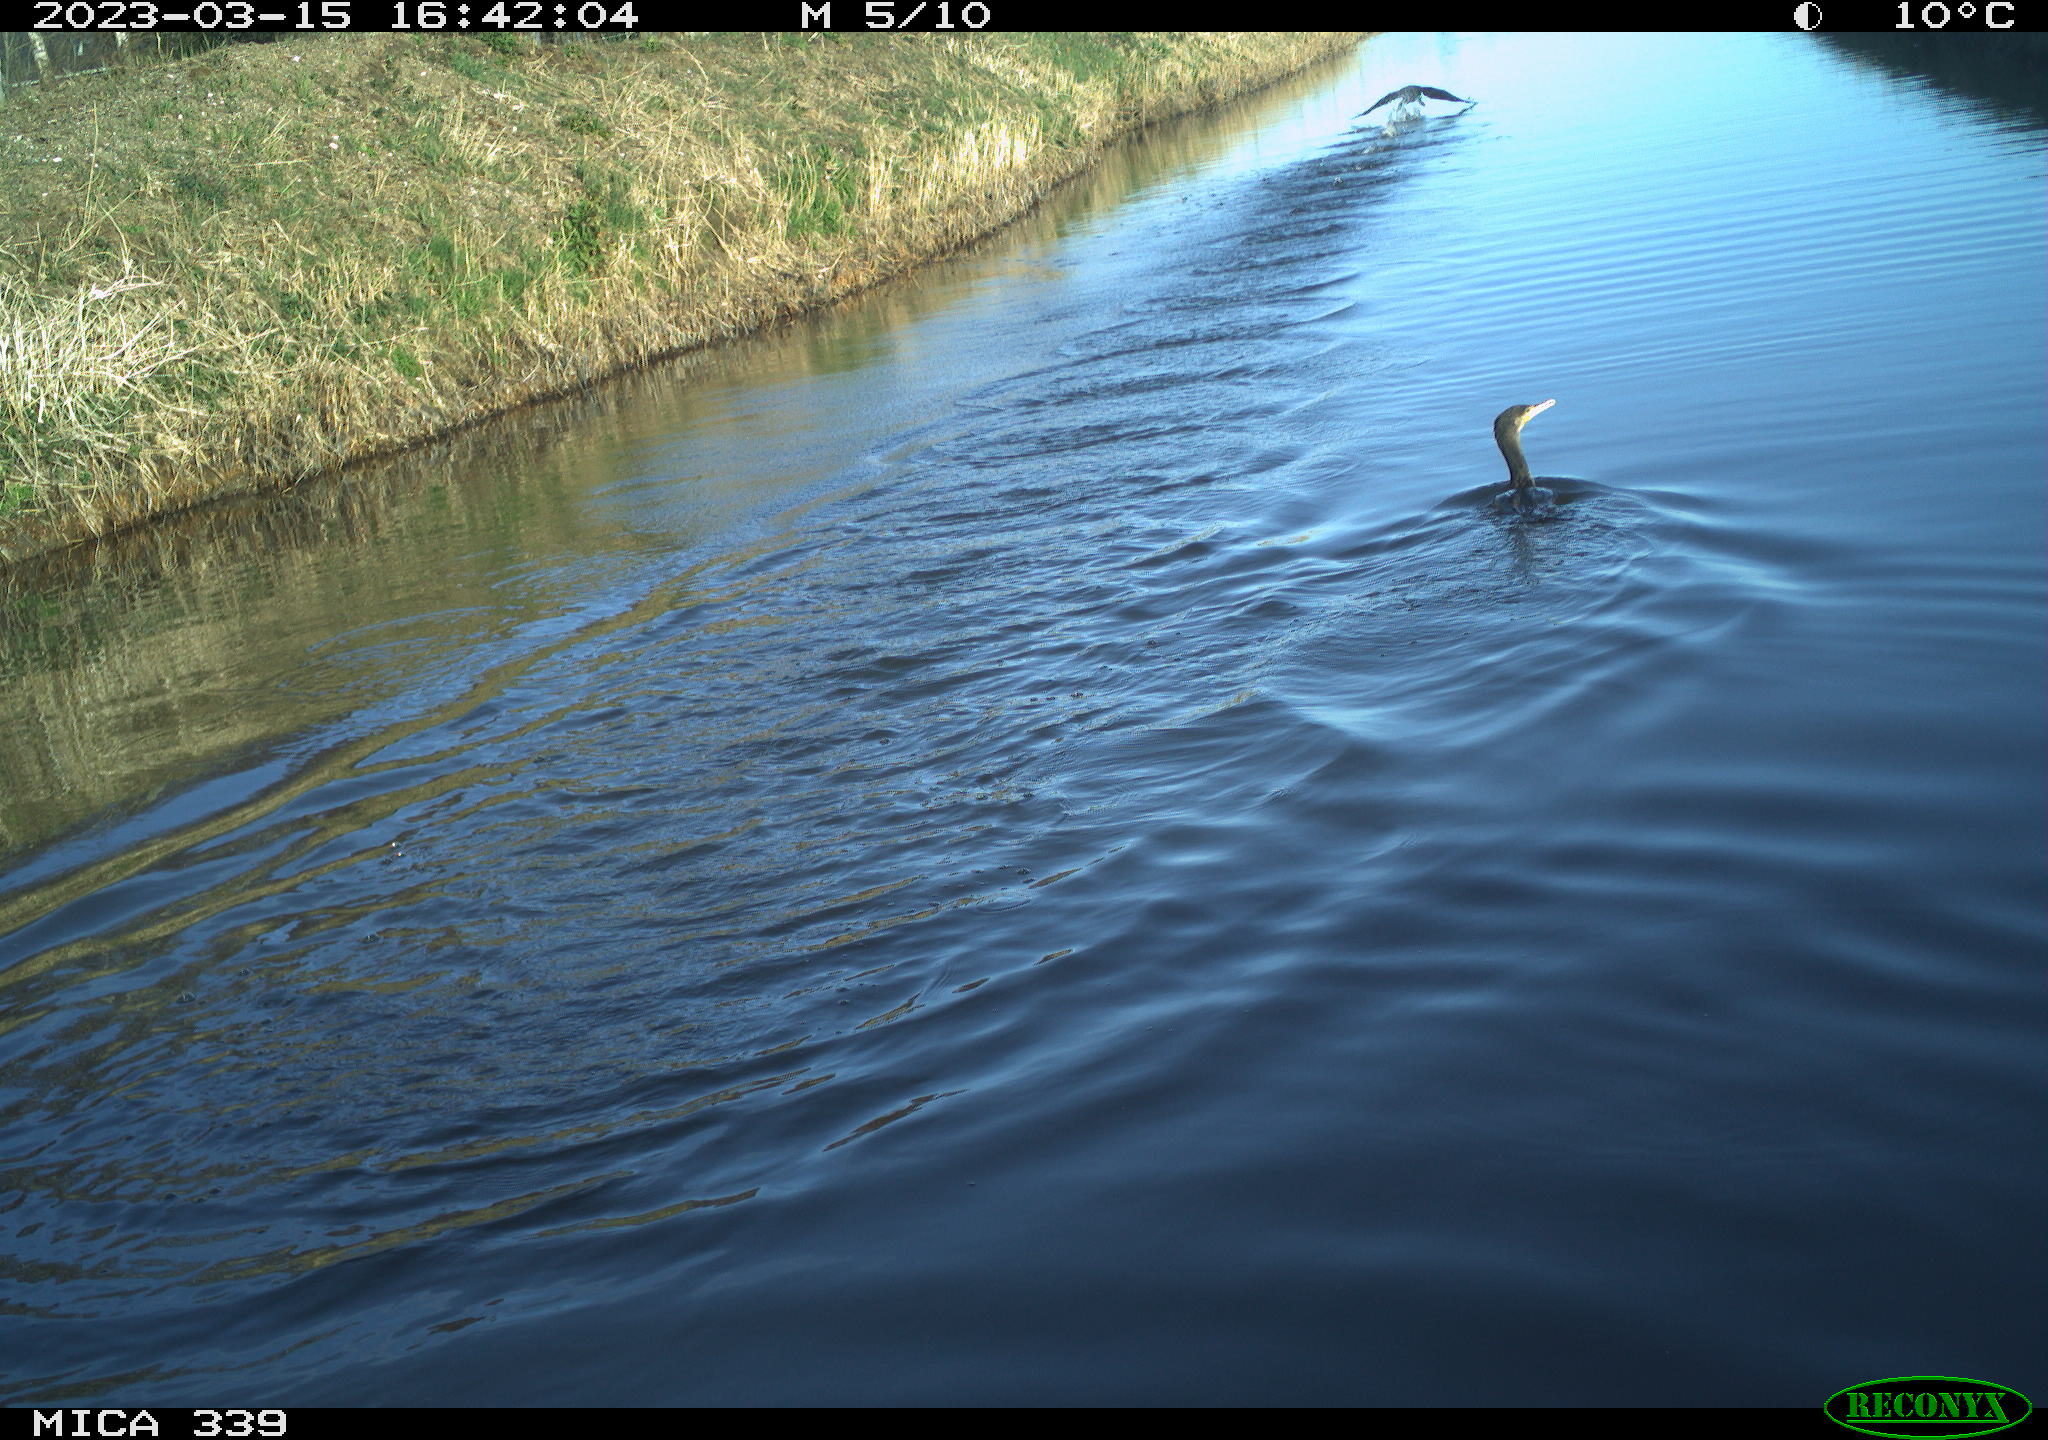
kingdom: Animalia
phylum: Chordata
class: Aves
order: Anseriformes
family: Anatidae
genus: Anas
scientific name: Anas
